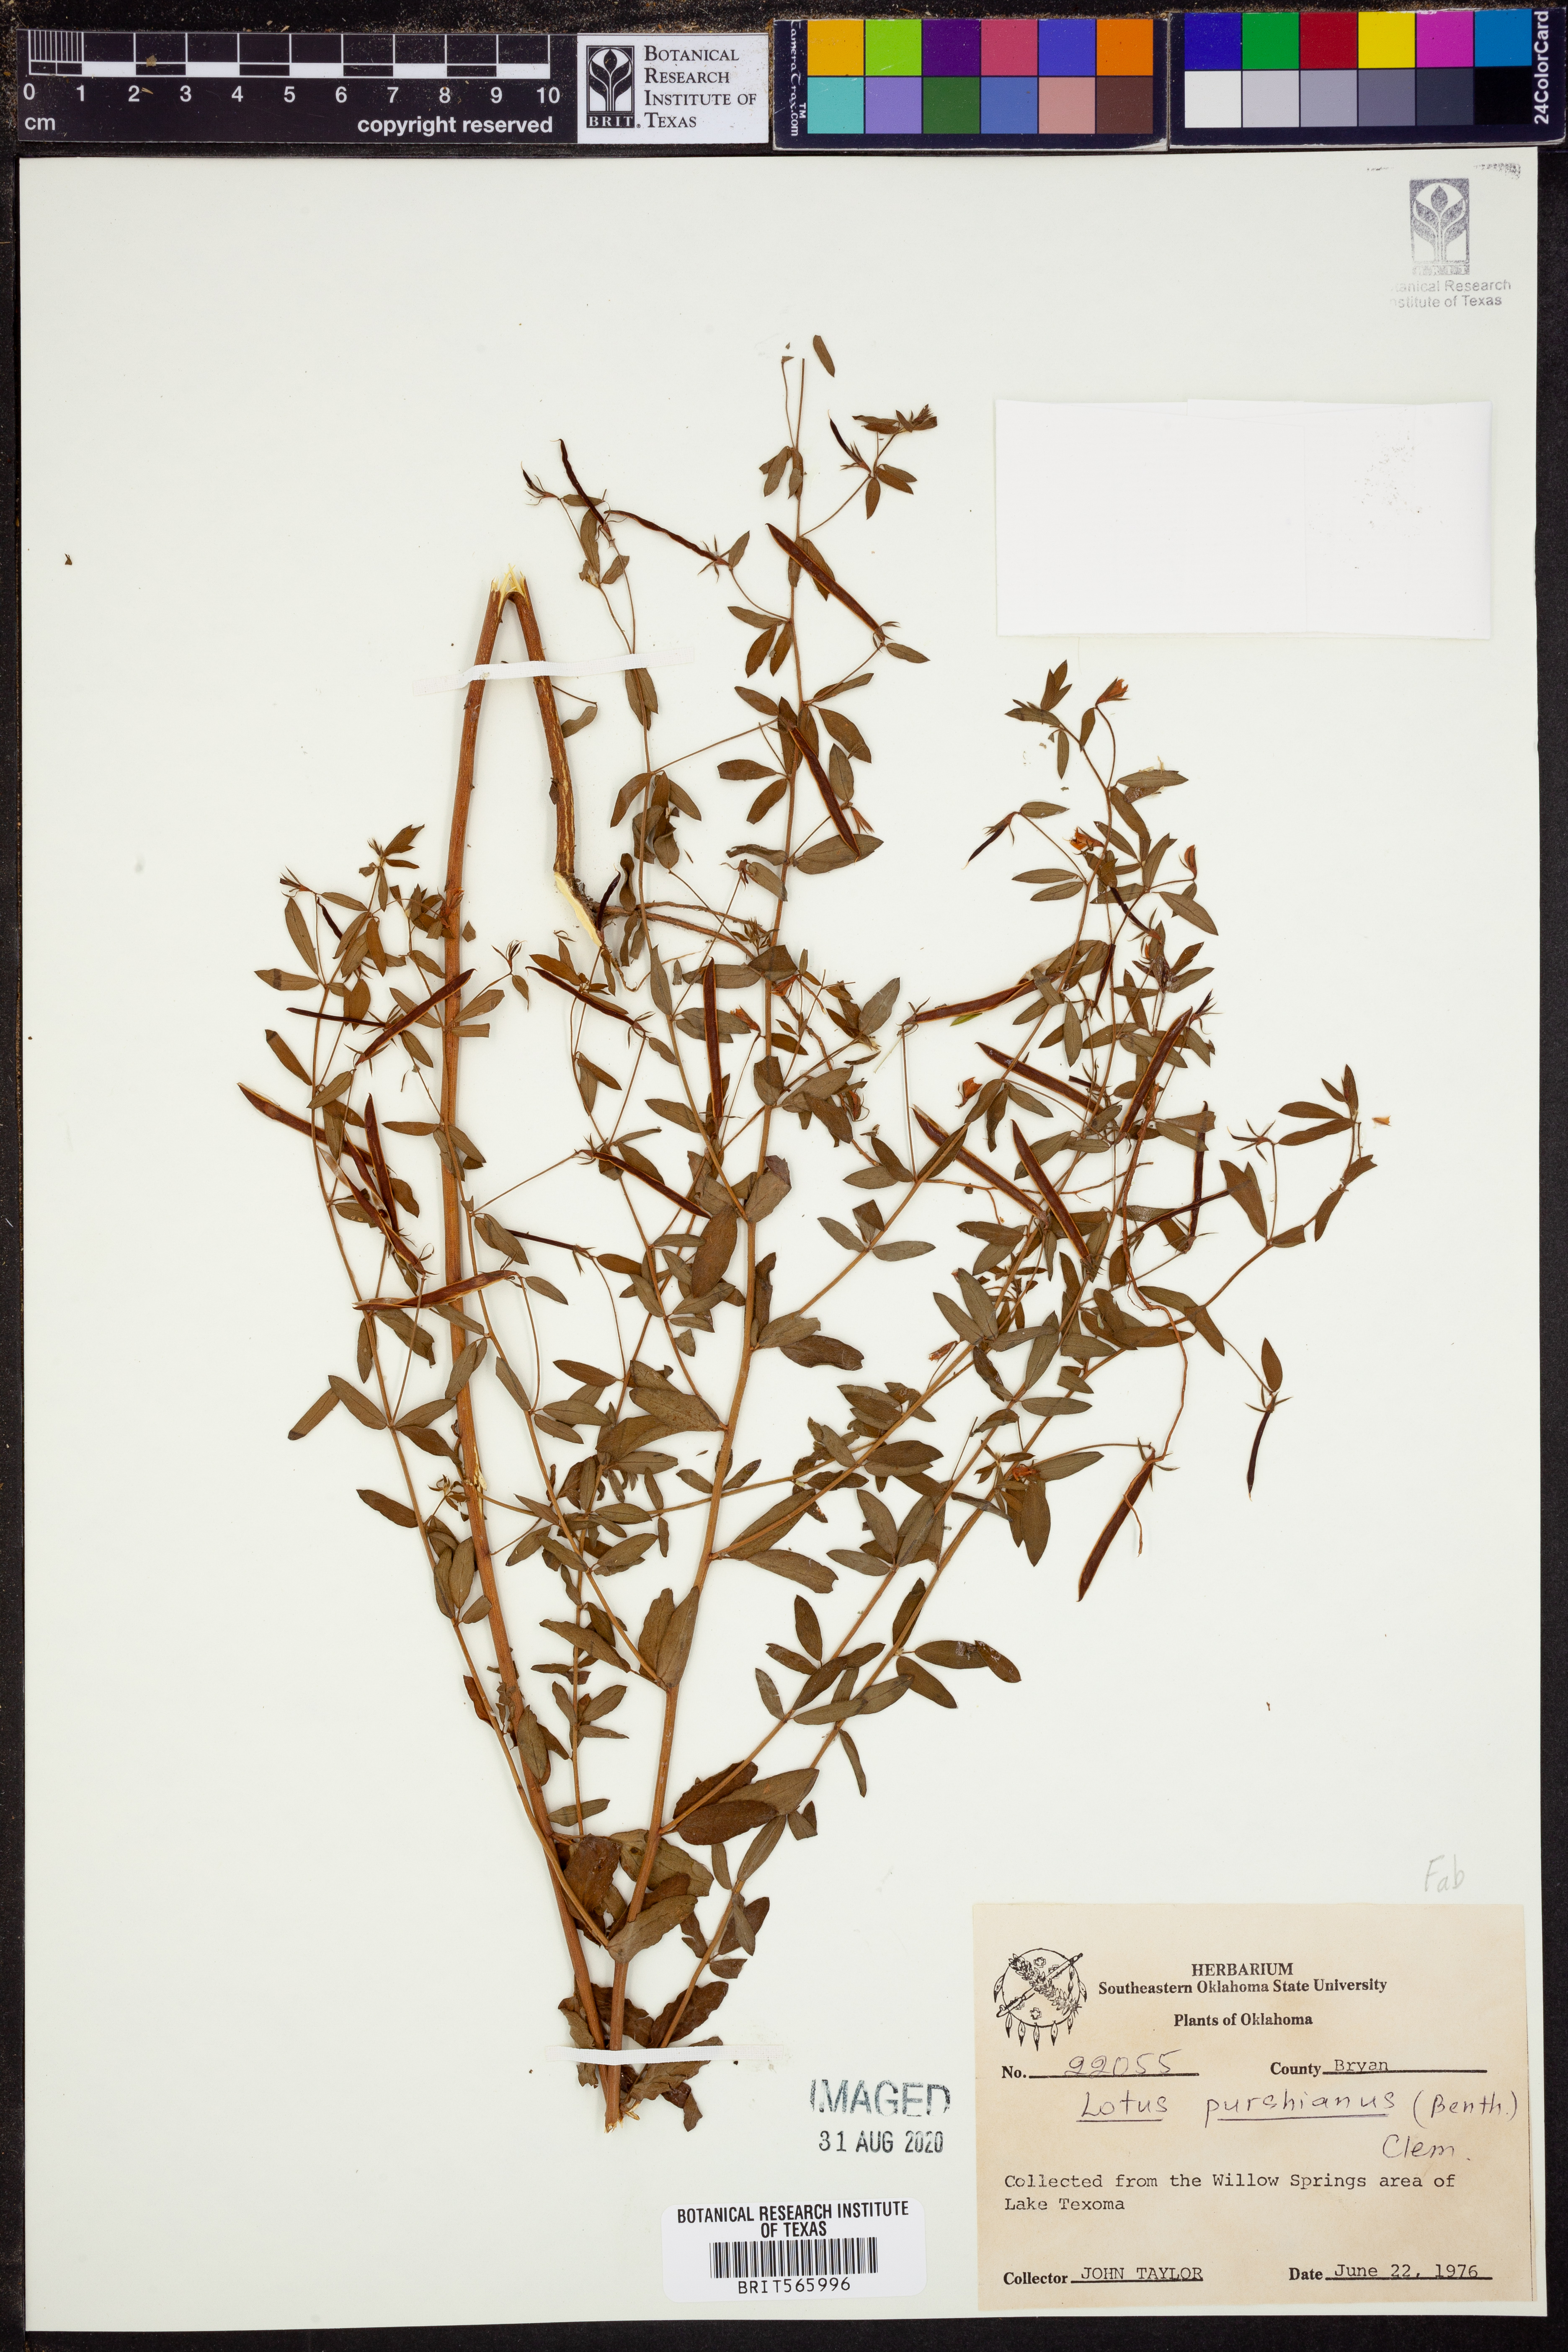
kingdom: Plantae
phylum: Tracheophyta
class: Magnoliopsida
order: Fabales
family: Fabaceae
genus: Acmispon
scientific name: Acmispon americanus
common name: American bird's-foot trefoil
